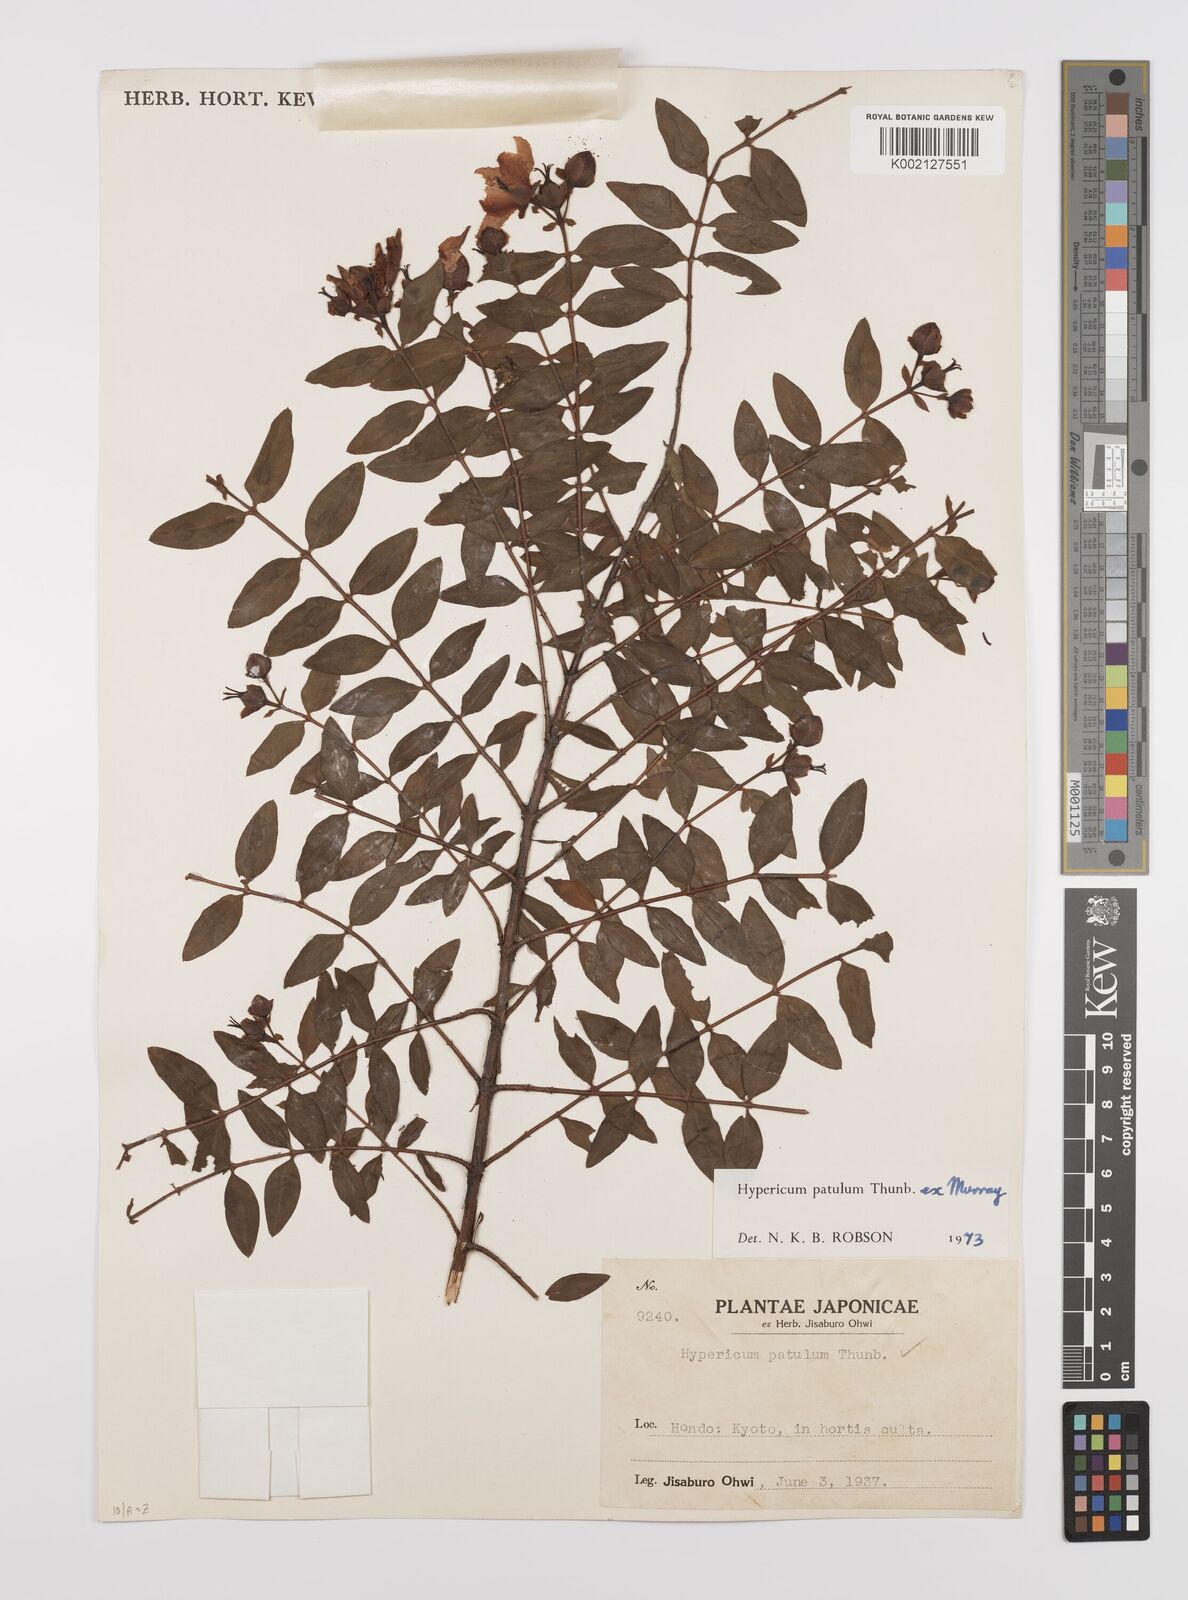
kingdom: Plantae
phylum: Tracheophyta
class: Magnoliopsida
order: Malpighiales
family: Hypericaceae
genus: Hypericum
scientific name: Hypericum patulum
